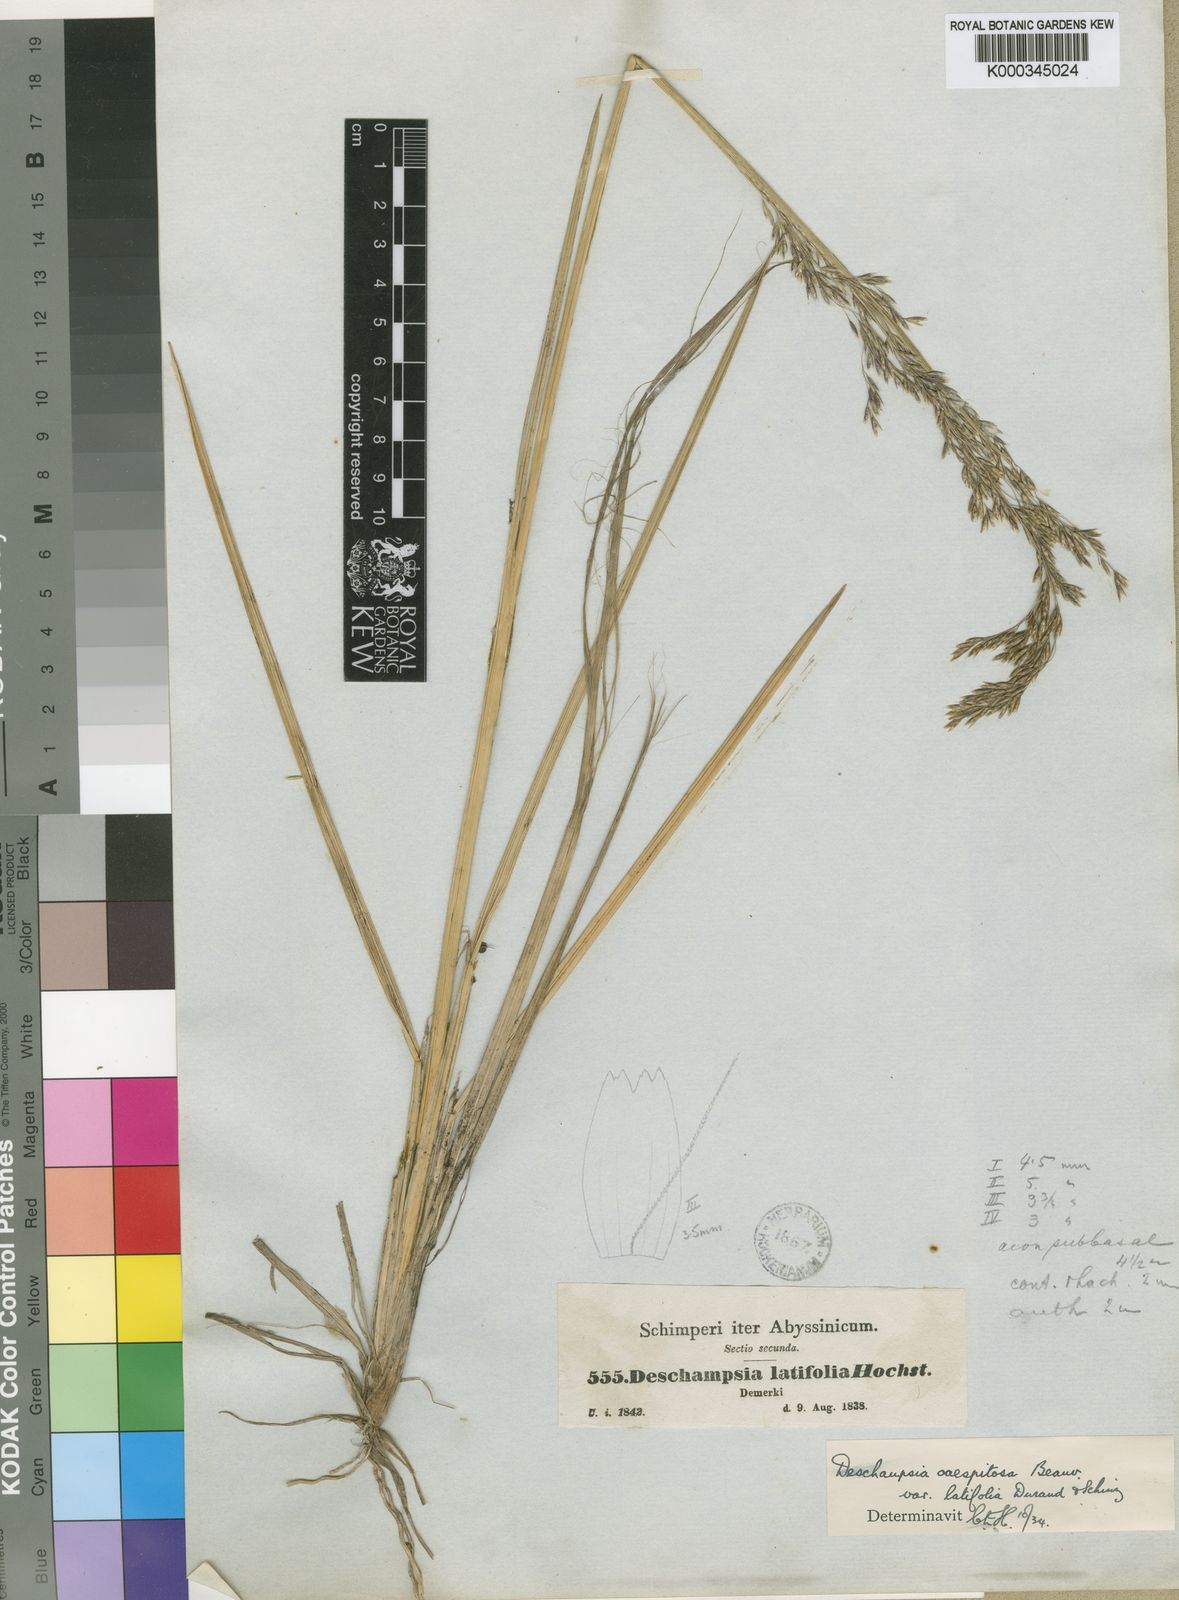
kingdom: Plantae
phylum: Tracheophyta
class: Liliopsida
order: Poales
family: Poaceae
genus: Deschampsia
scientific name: Deschampsia
